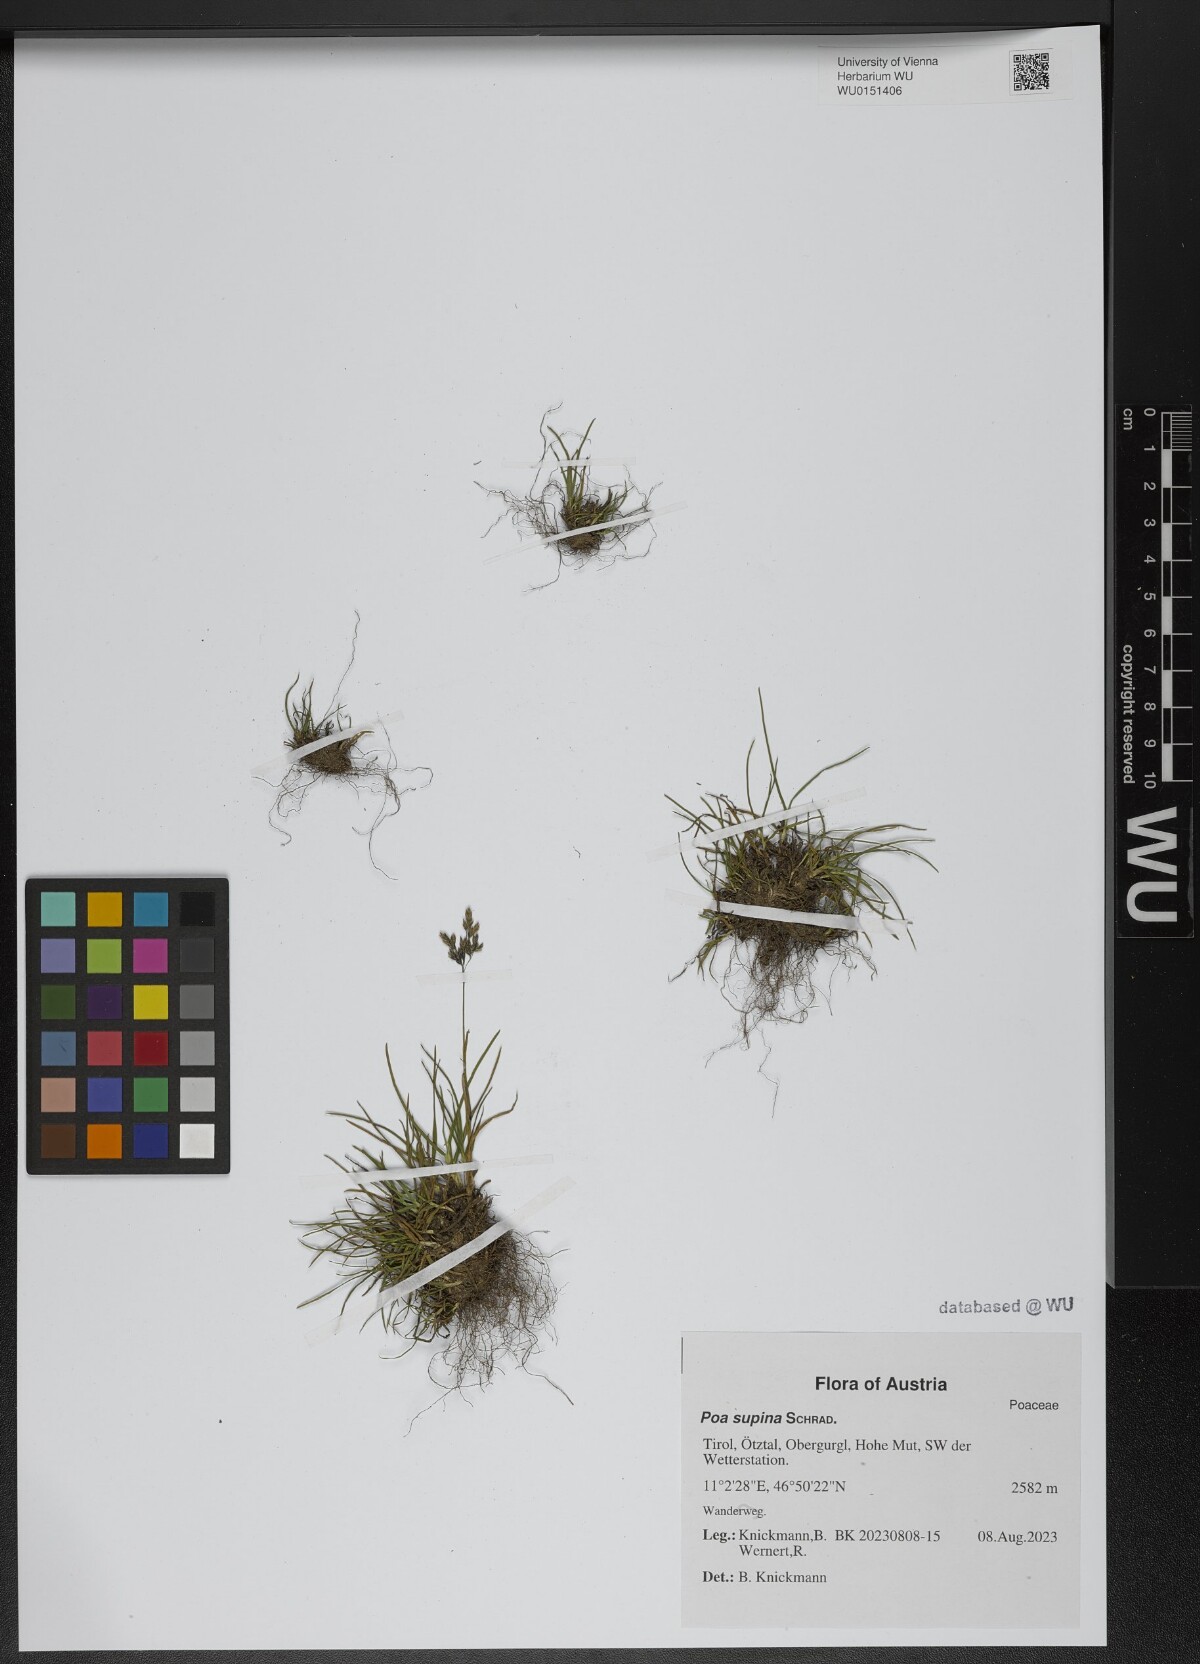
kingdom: Plantae
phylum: Tracheophyta
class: Liliopsida
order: Poales
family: Poaceae
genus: Poa
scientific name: Poa supina
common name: Supina bluegrass
